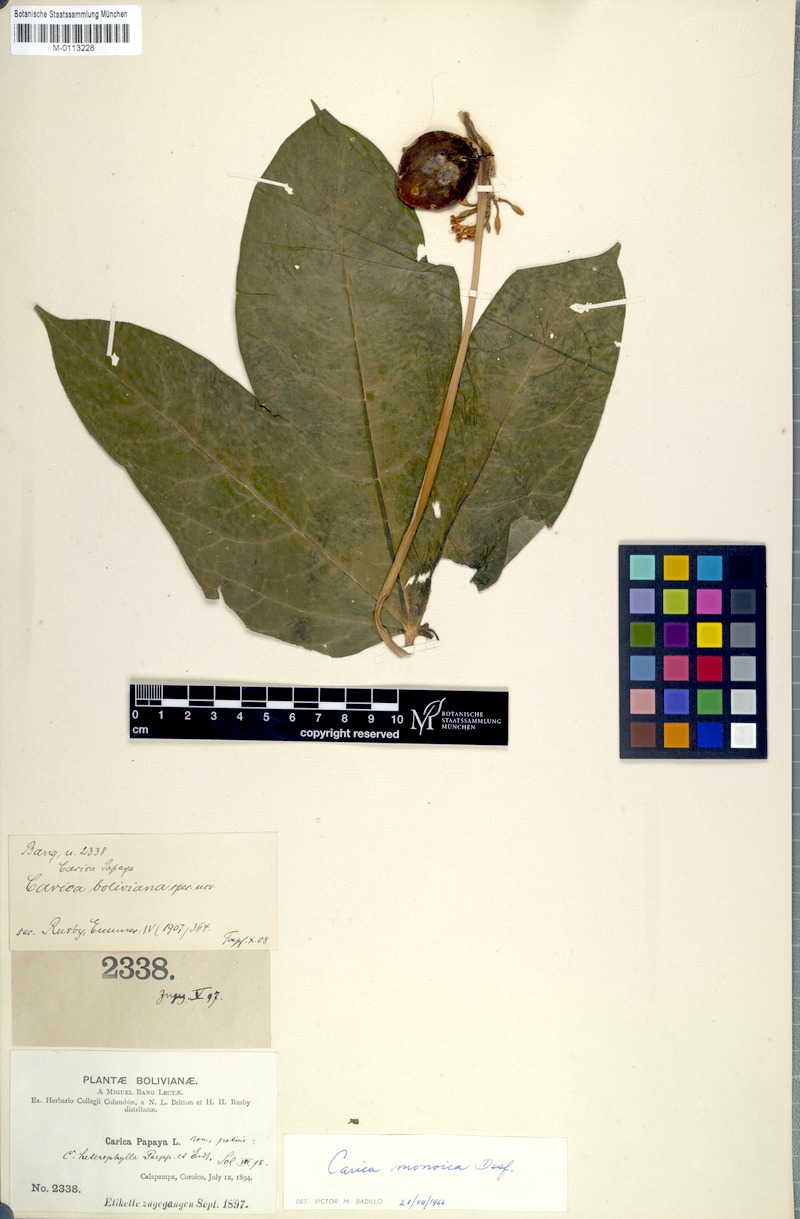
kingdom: Plantae
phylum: Tracheophyta
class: Magnoliopsida
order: Brassicales
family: Caricaceae
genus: Vasconcellea
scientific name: Vasconcellea monoica
